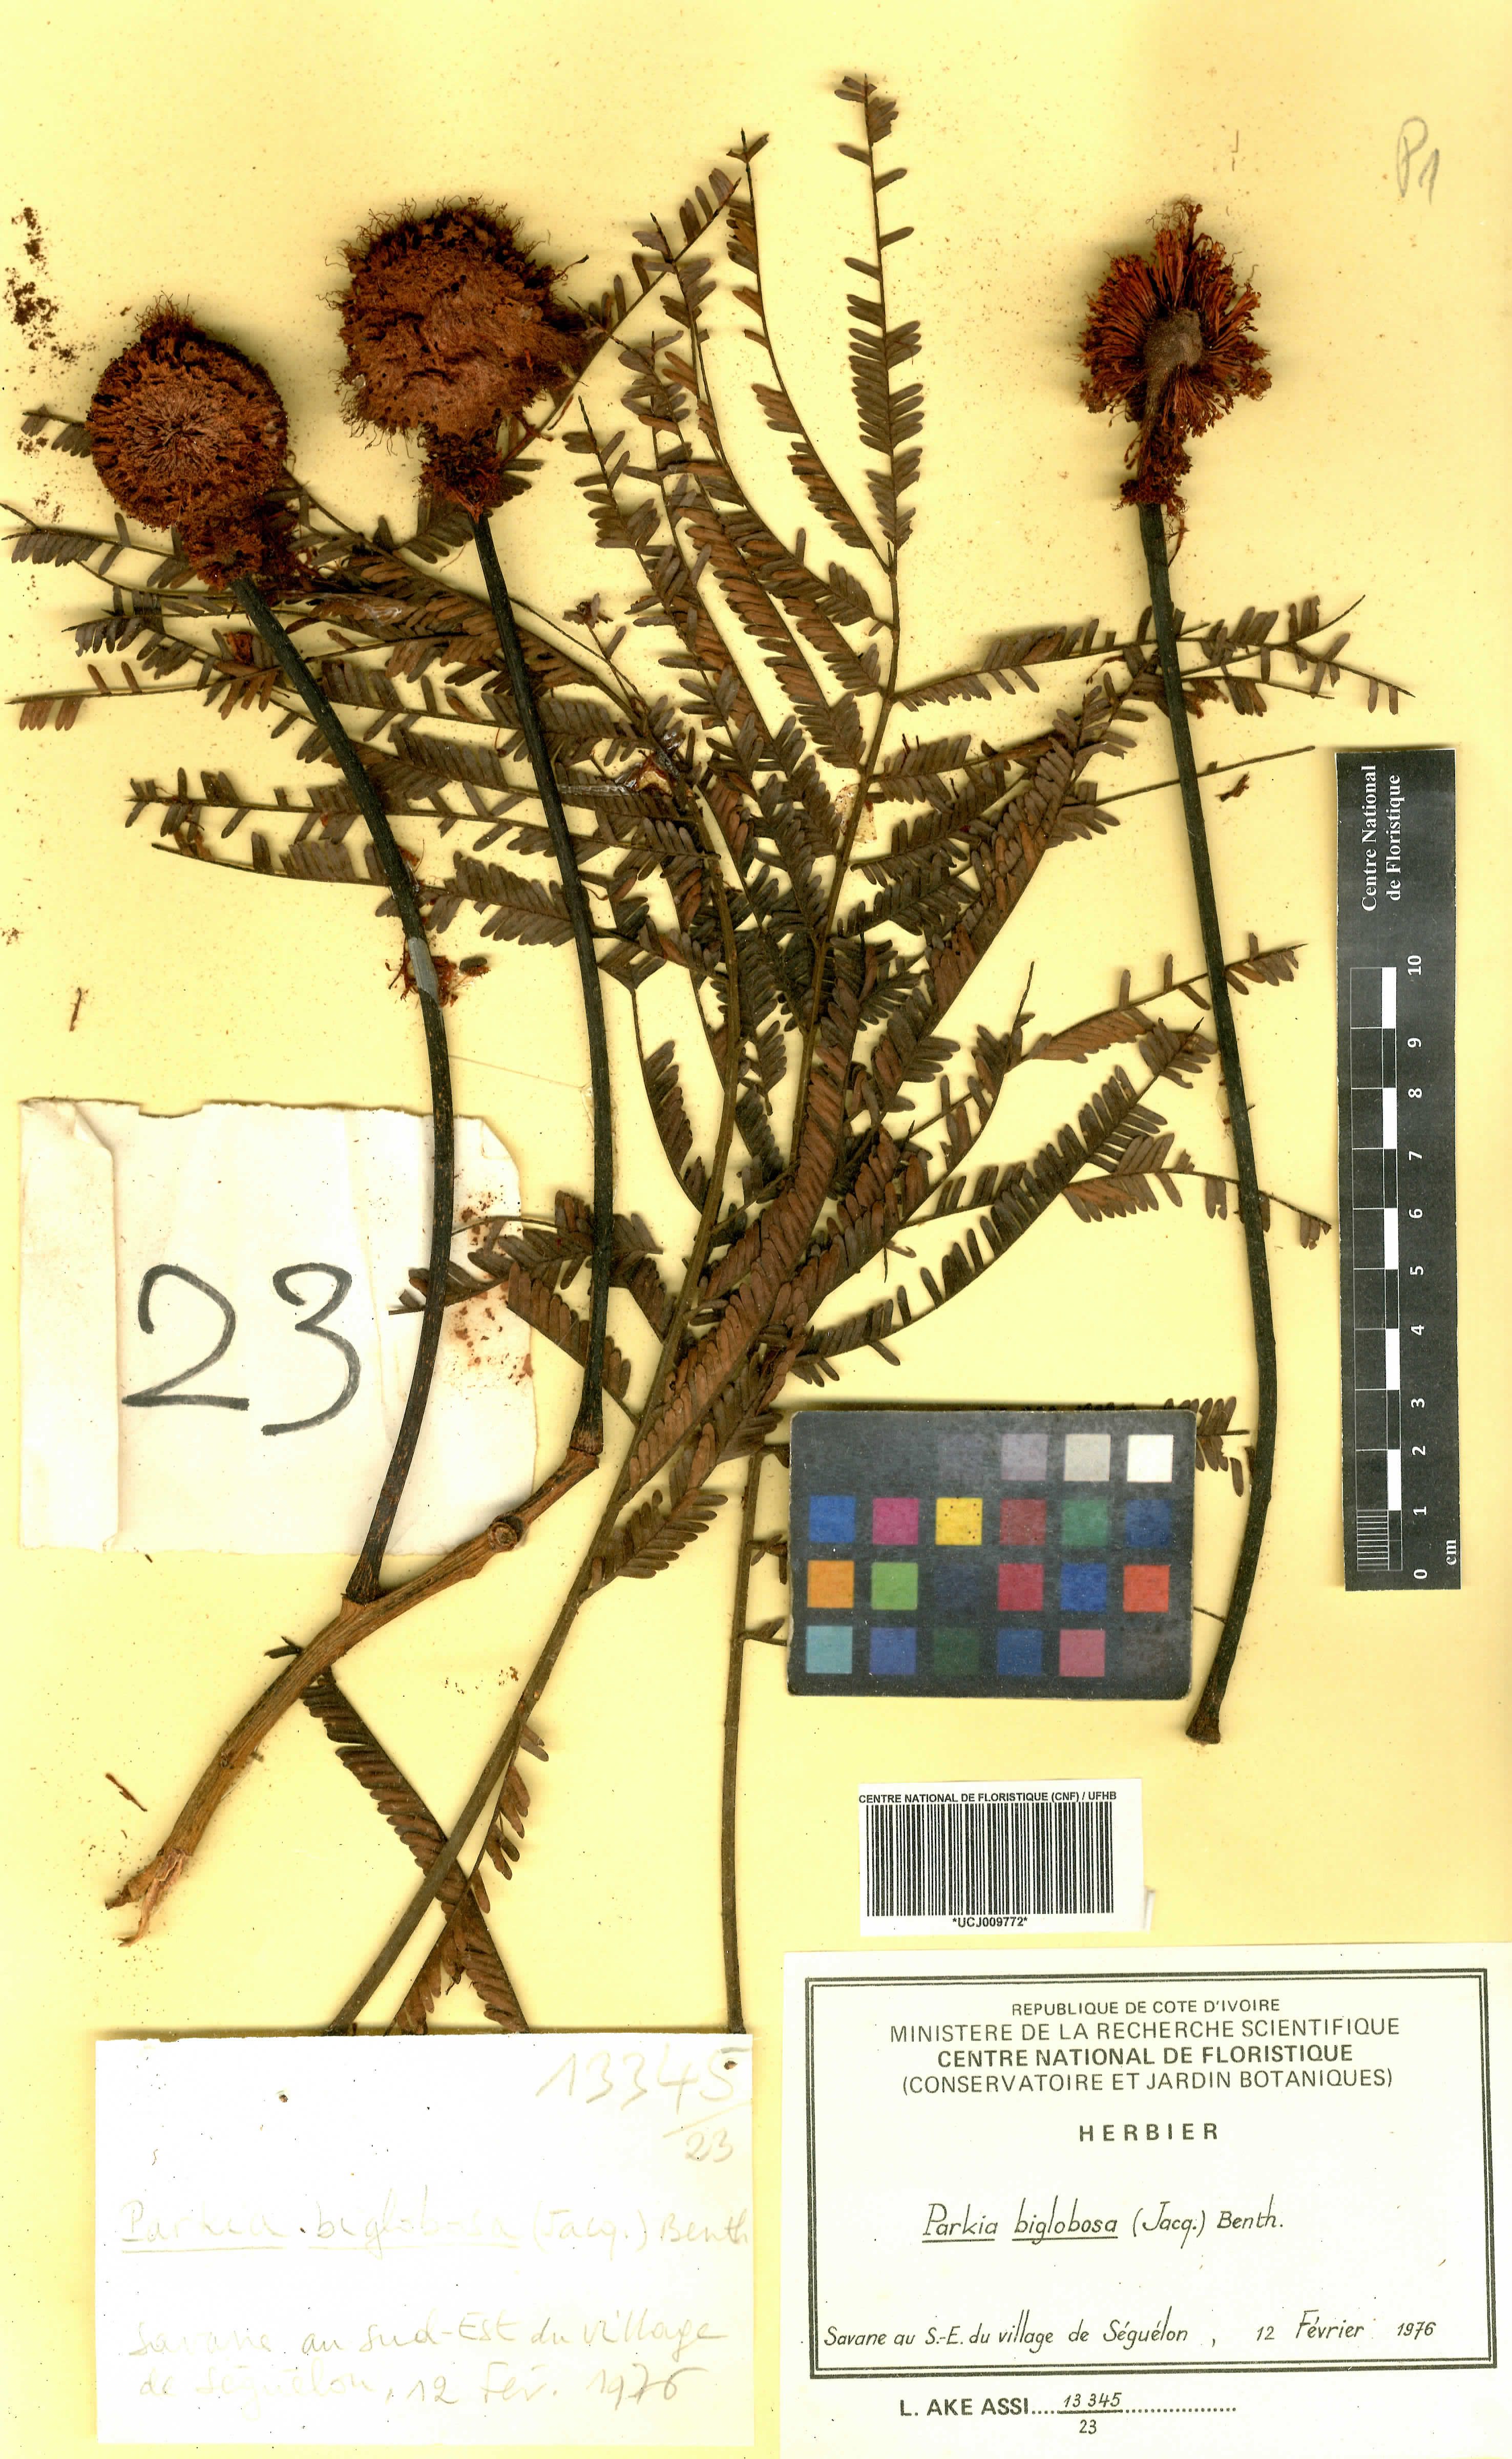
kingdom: Plantae
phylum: Tracheophyta
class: Magnoliopsida
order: Fabales
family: Fabaceae
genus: Parkia
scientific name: Parkia timoriana
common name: Legume
